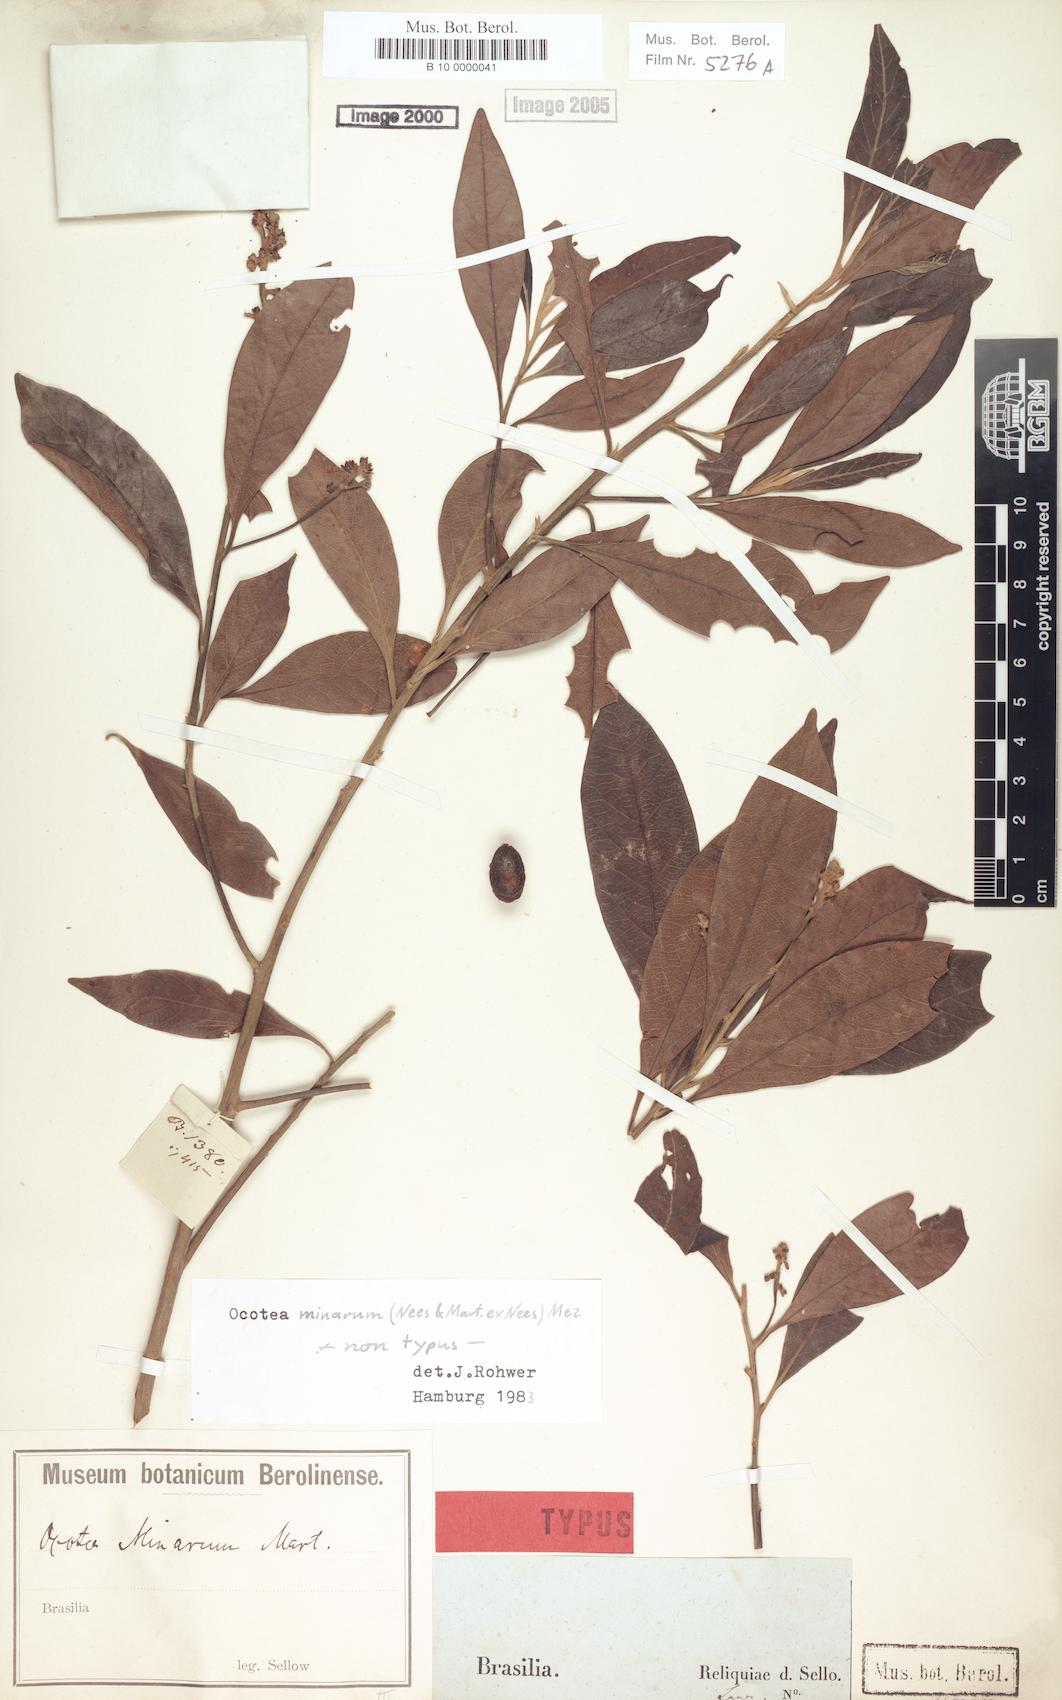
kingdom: Plantae
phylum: Tracheophyta
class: Magnoliopsida
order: Laurales
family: Lauraceae
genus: Ocotea
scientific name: Ocotea minarum
